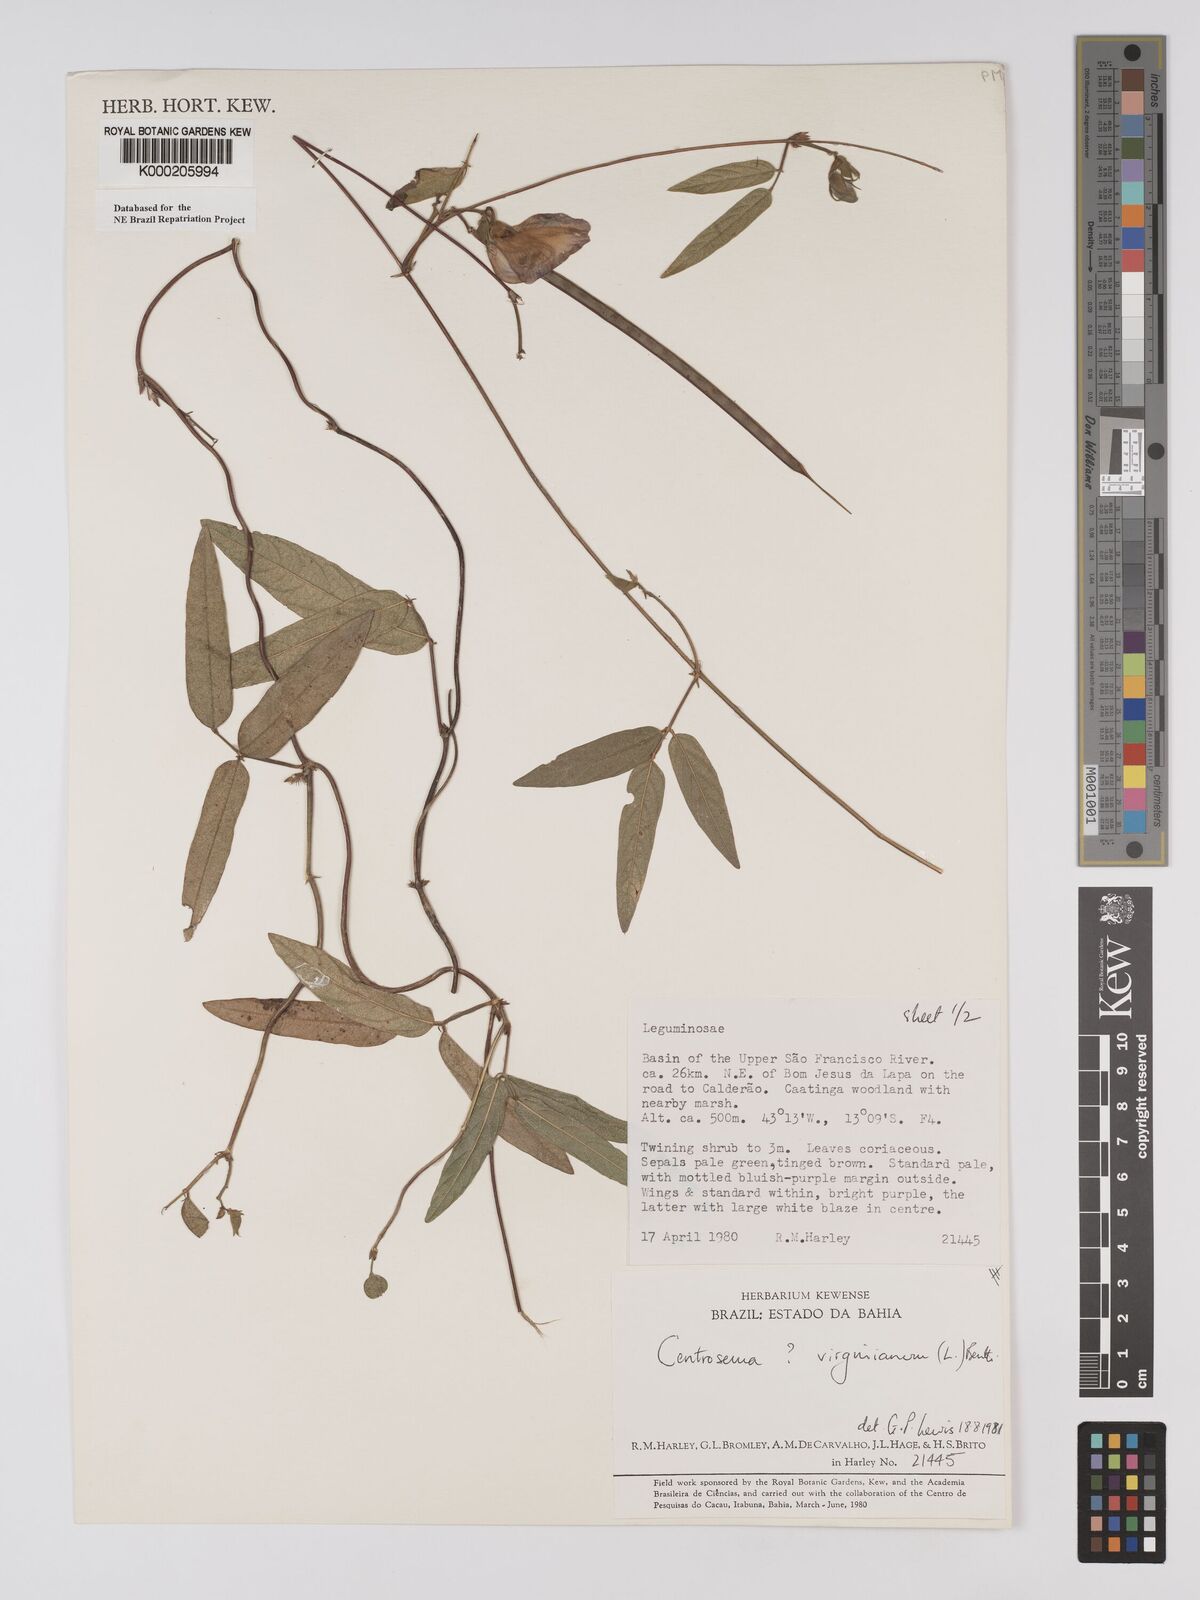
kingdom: Plantae
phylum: Tracheophyta
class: Magnoliopsida
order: Fabales
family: Fabaceae
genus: Centrosema
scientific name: Centrosema virginianum
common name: Butterfly-pea
